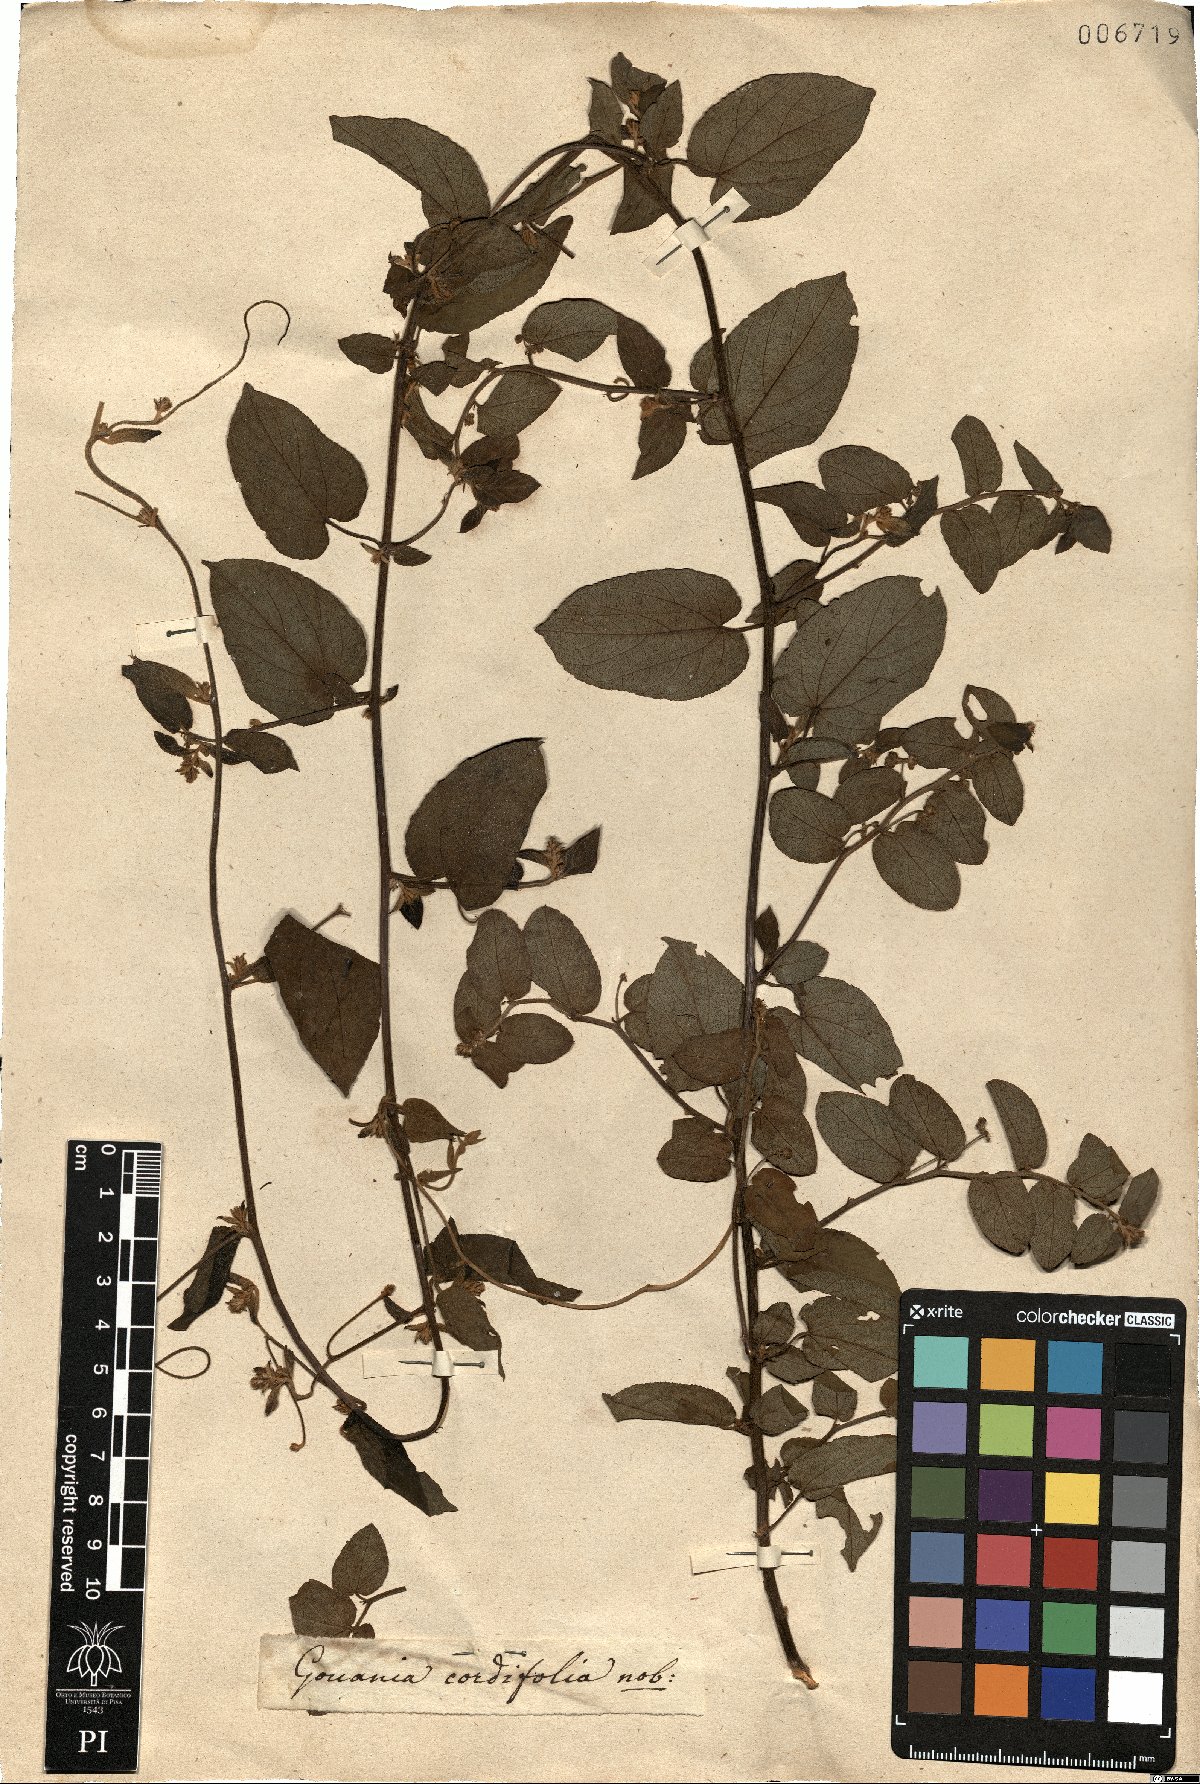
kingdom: Plantae
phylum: Tracheophyta
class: Magnoliopsida
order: Rosales
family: Rhamnaceae
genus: Reissekia
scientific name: Reissekia smilacina
